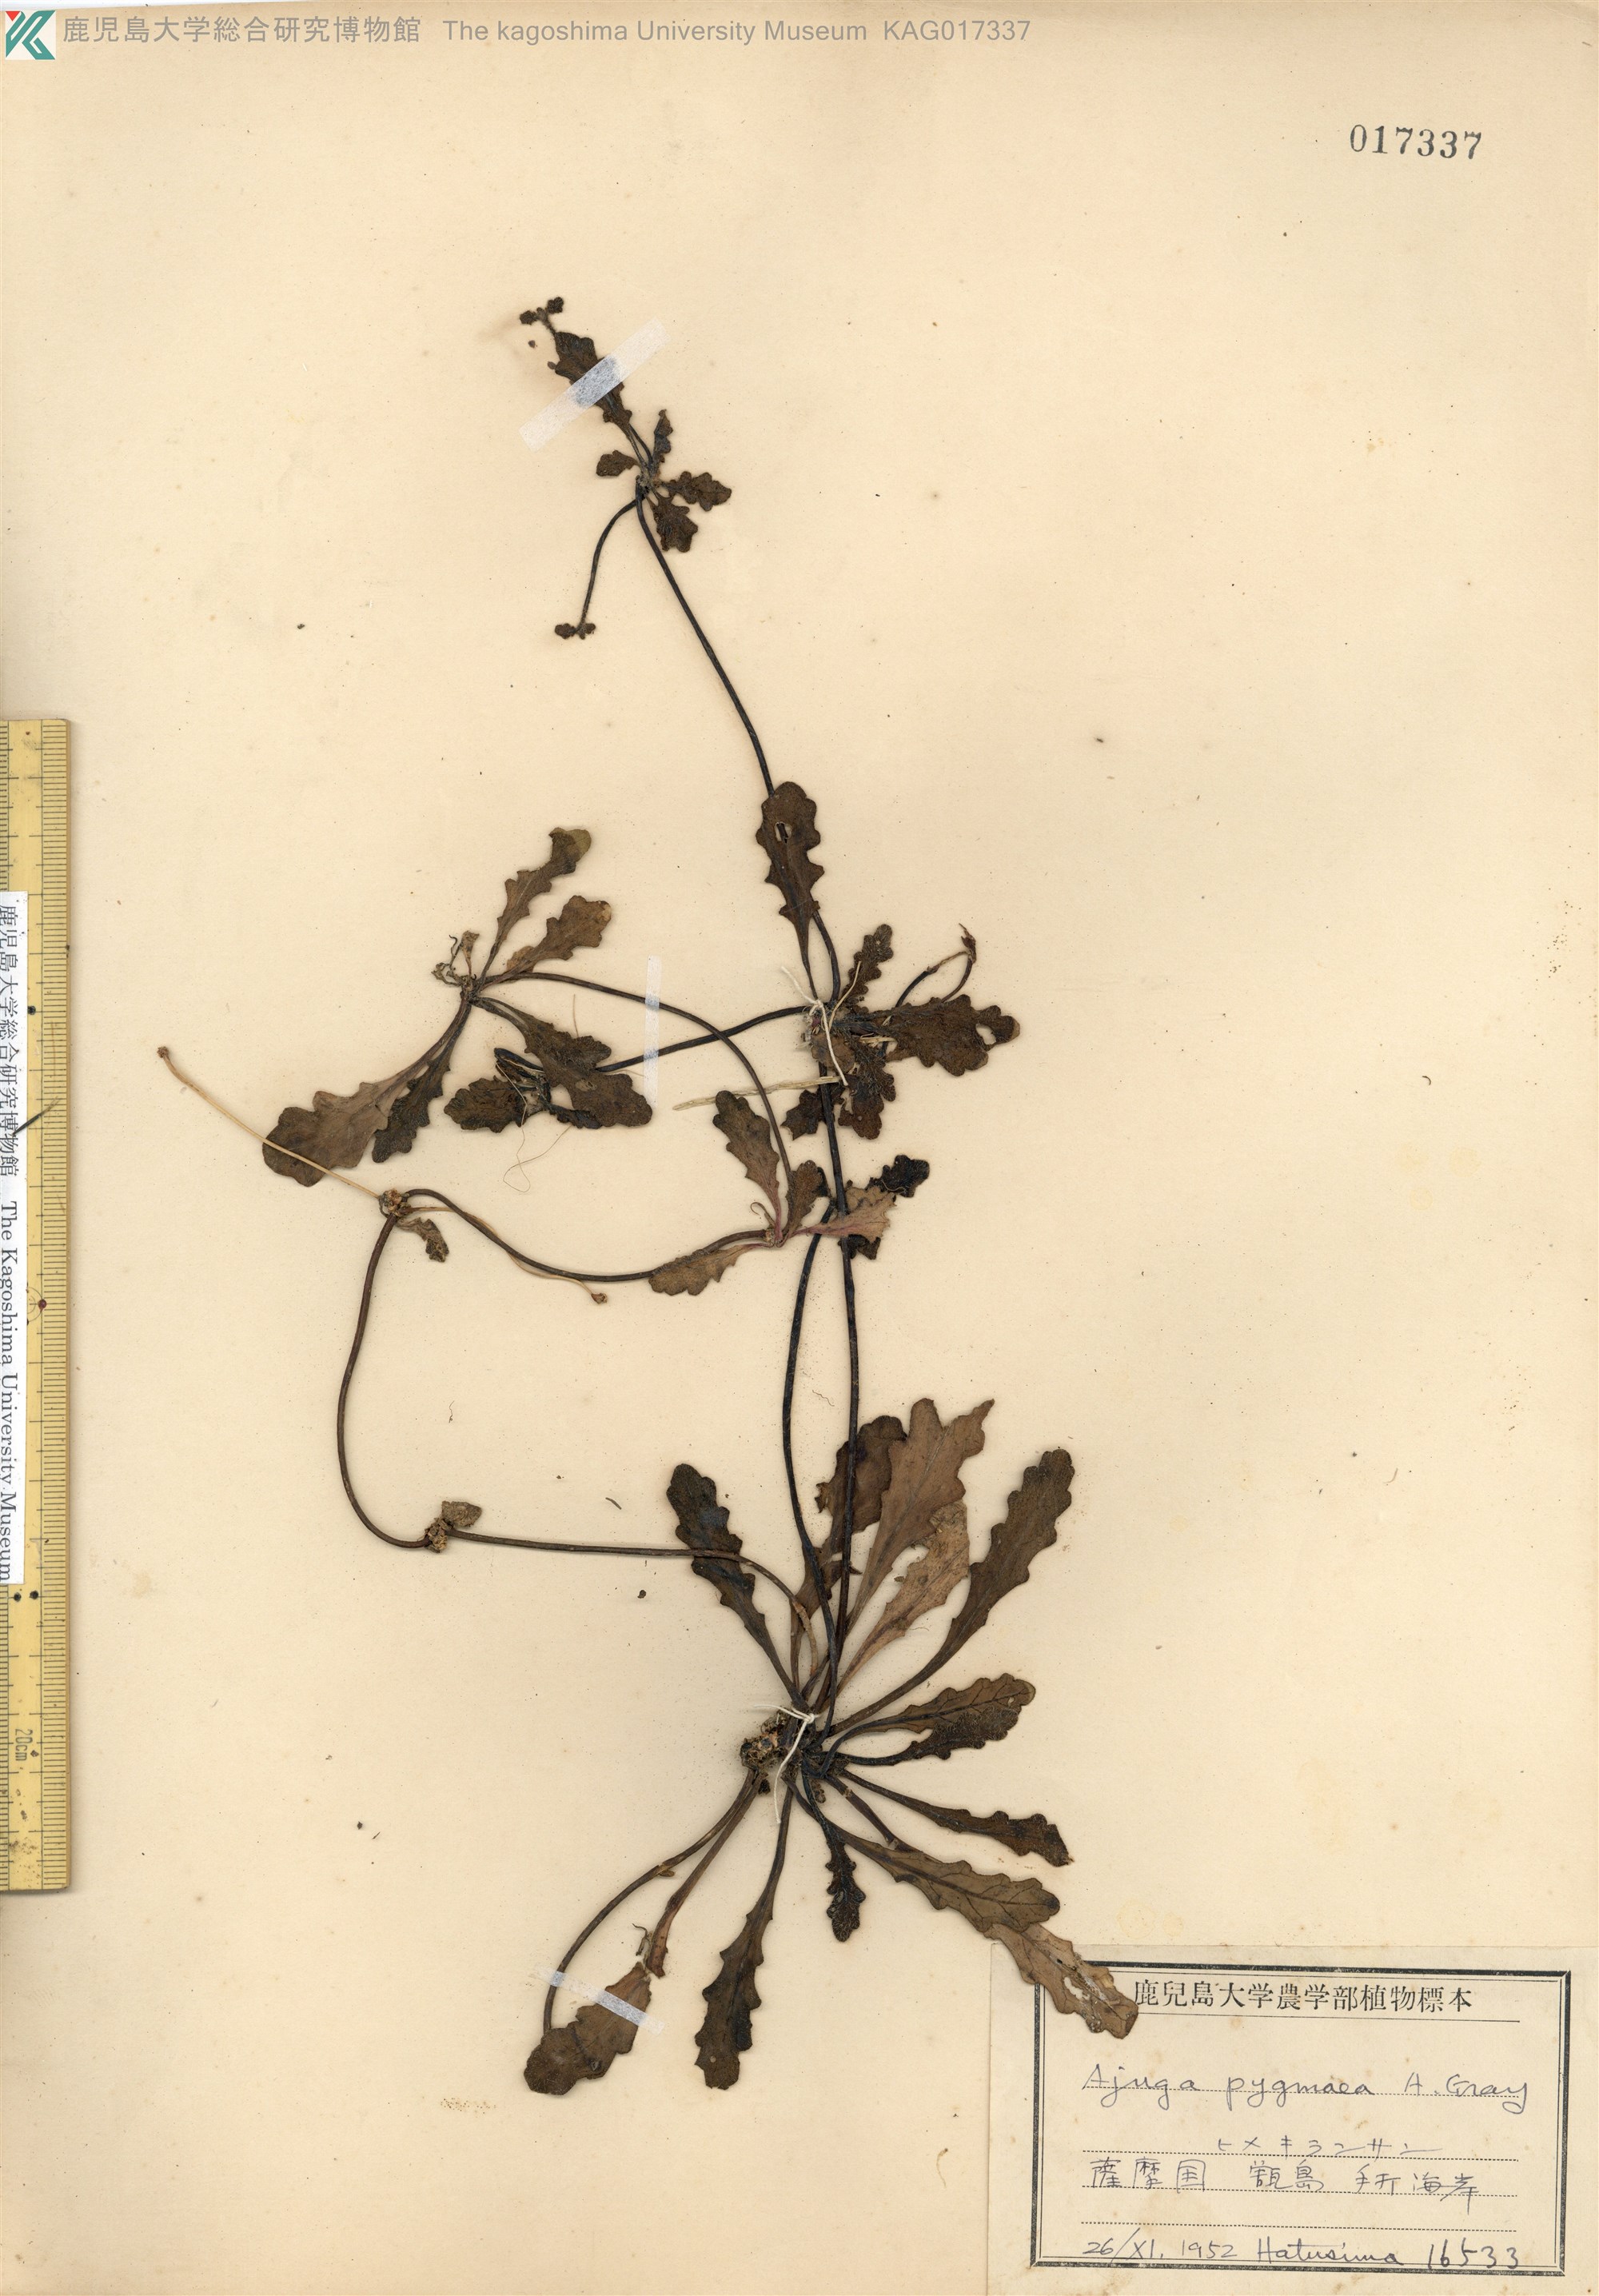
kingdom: Plantae
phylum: Tracheophyta
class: Magnoliopsida
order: Lamiales
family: Lamiaceae
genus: Ajuga
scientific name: Ajuga pygmaea
